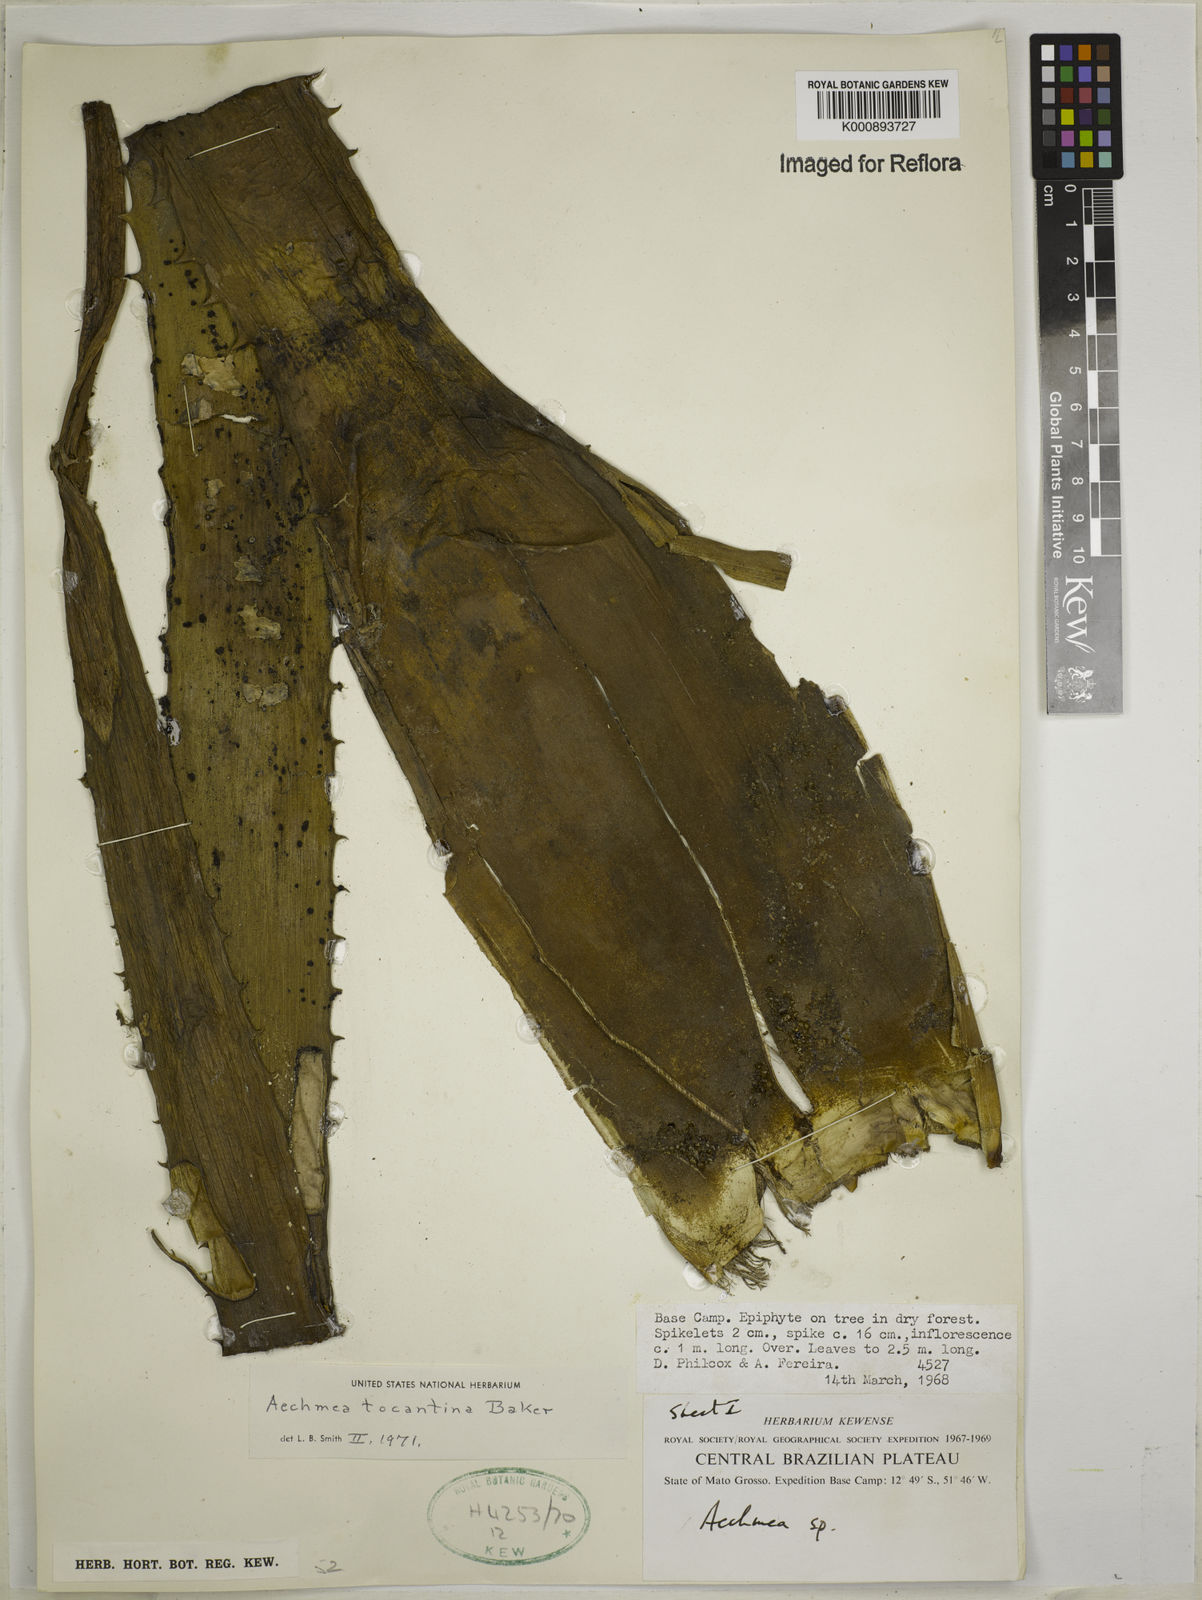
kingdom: Plantae
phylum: Tracheophyta
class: Liliopsida
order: Poales
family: Bromeliaceae
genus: Aechmea
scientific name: Aechmea tocantina
